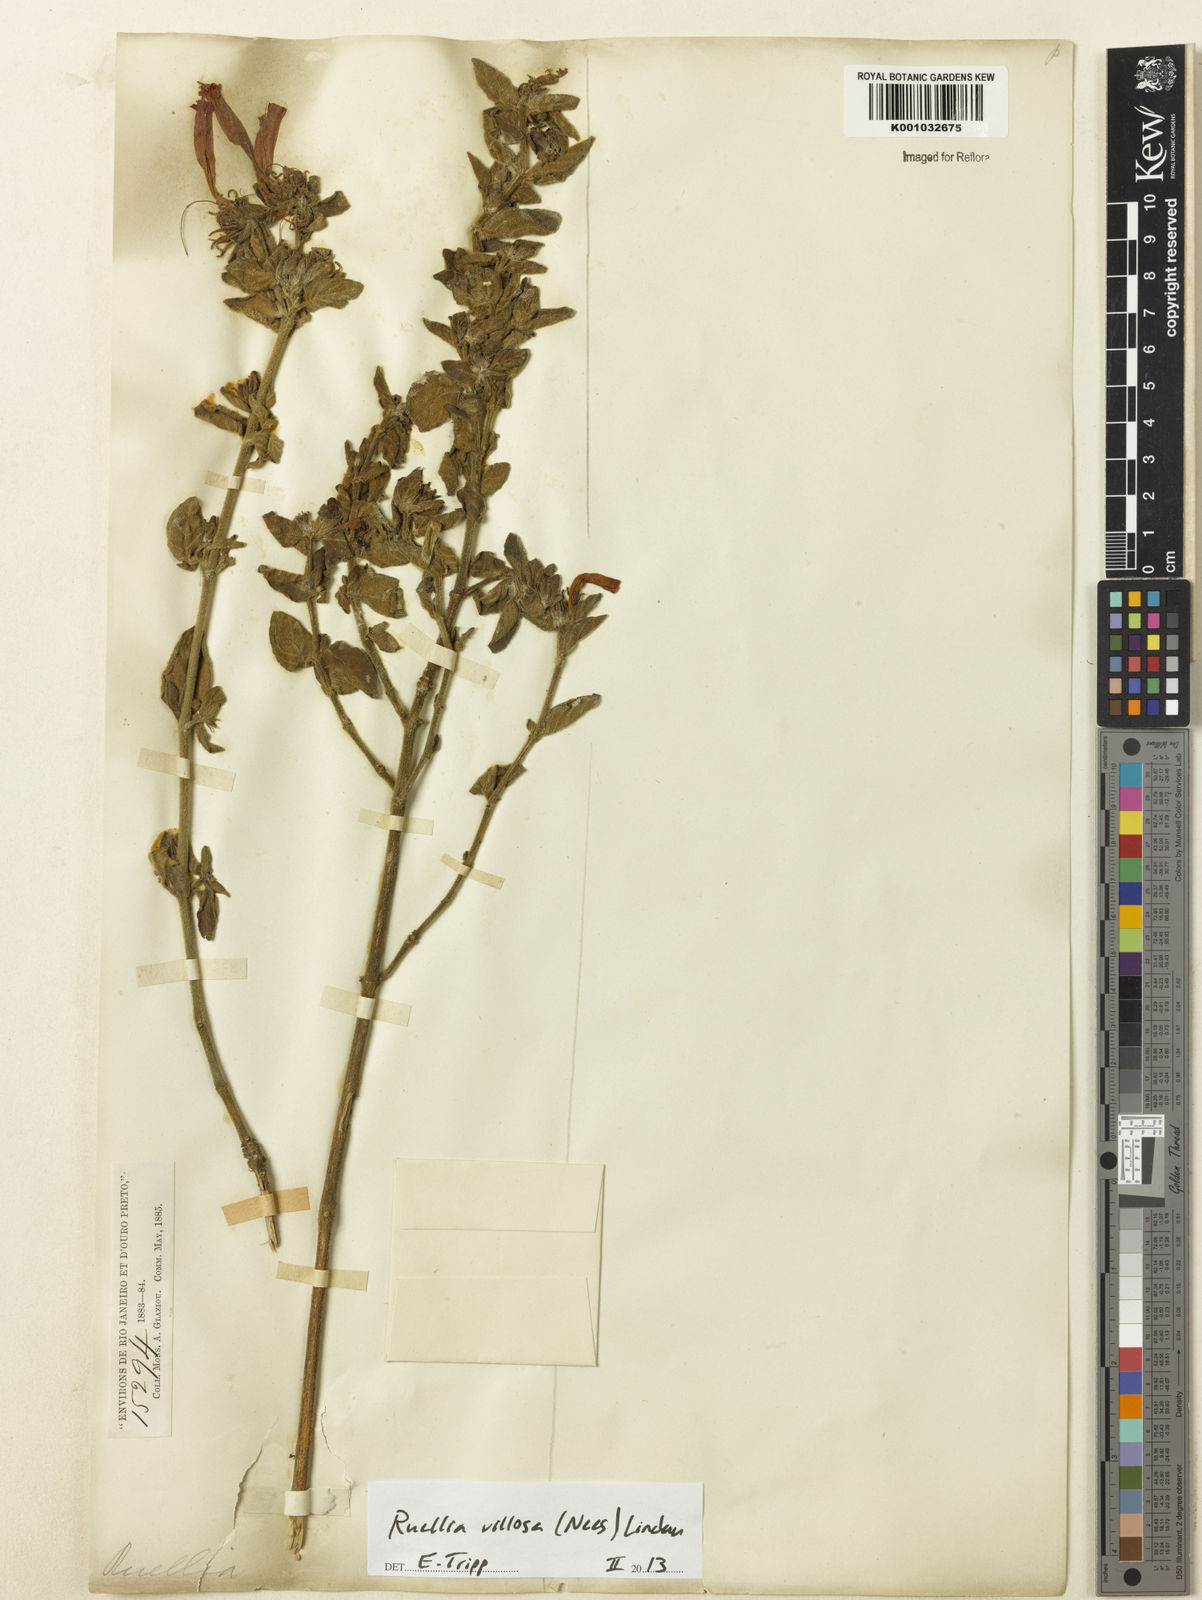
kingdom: Plantae
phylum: Tracheophyta
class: Magnoliopsida
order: Lamiales
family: Acanthaceae
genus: Ruellia
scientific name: Ruellia villosa
